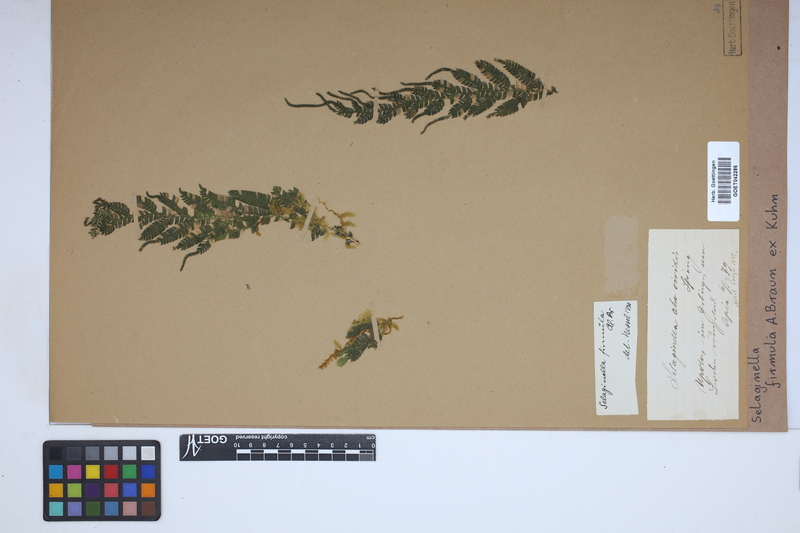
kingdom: Plantae
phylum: Tracheophyta
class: Lycopodiopsida
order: Selaginellales
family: Selaginellaceae
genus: Selaginella
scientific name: Selaginella firmula
